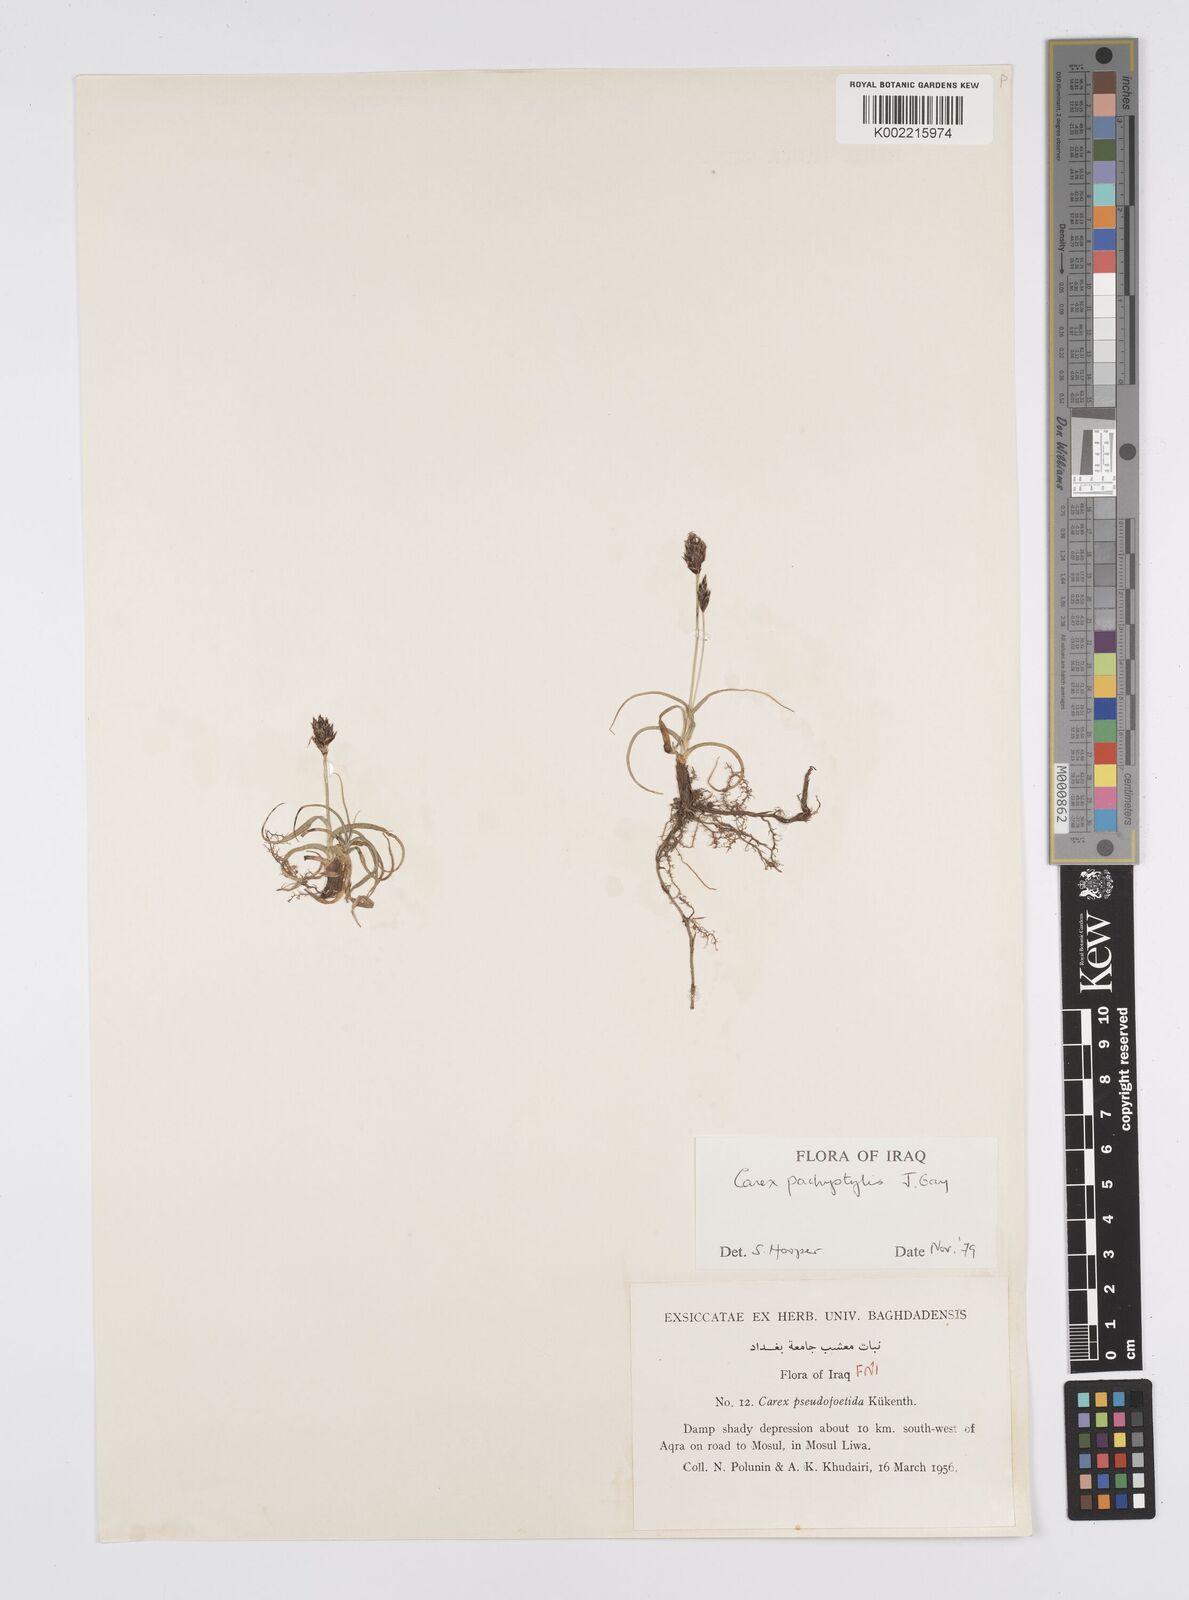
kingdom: Plantae
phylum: Tracheophyta
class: Liliopsida
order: Poales
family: Cyperaceae
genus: Carex
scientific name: Carex pachystylis
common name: Thick-stem sedge
